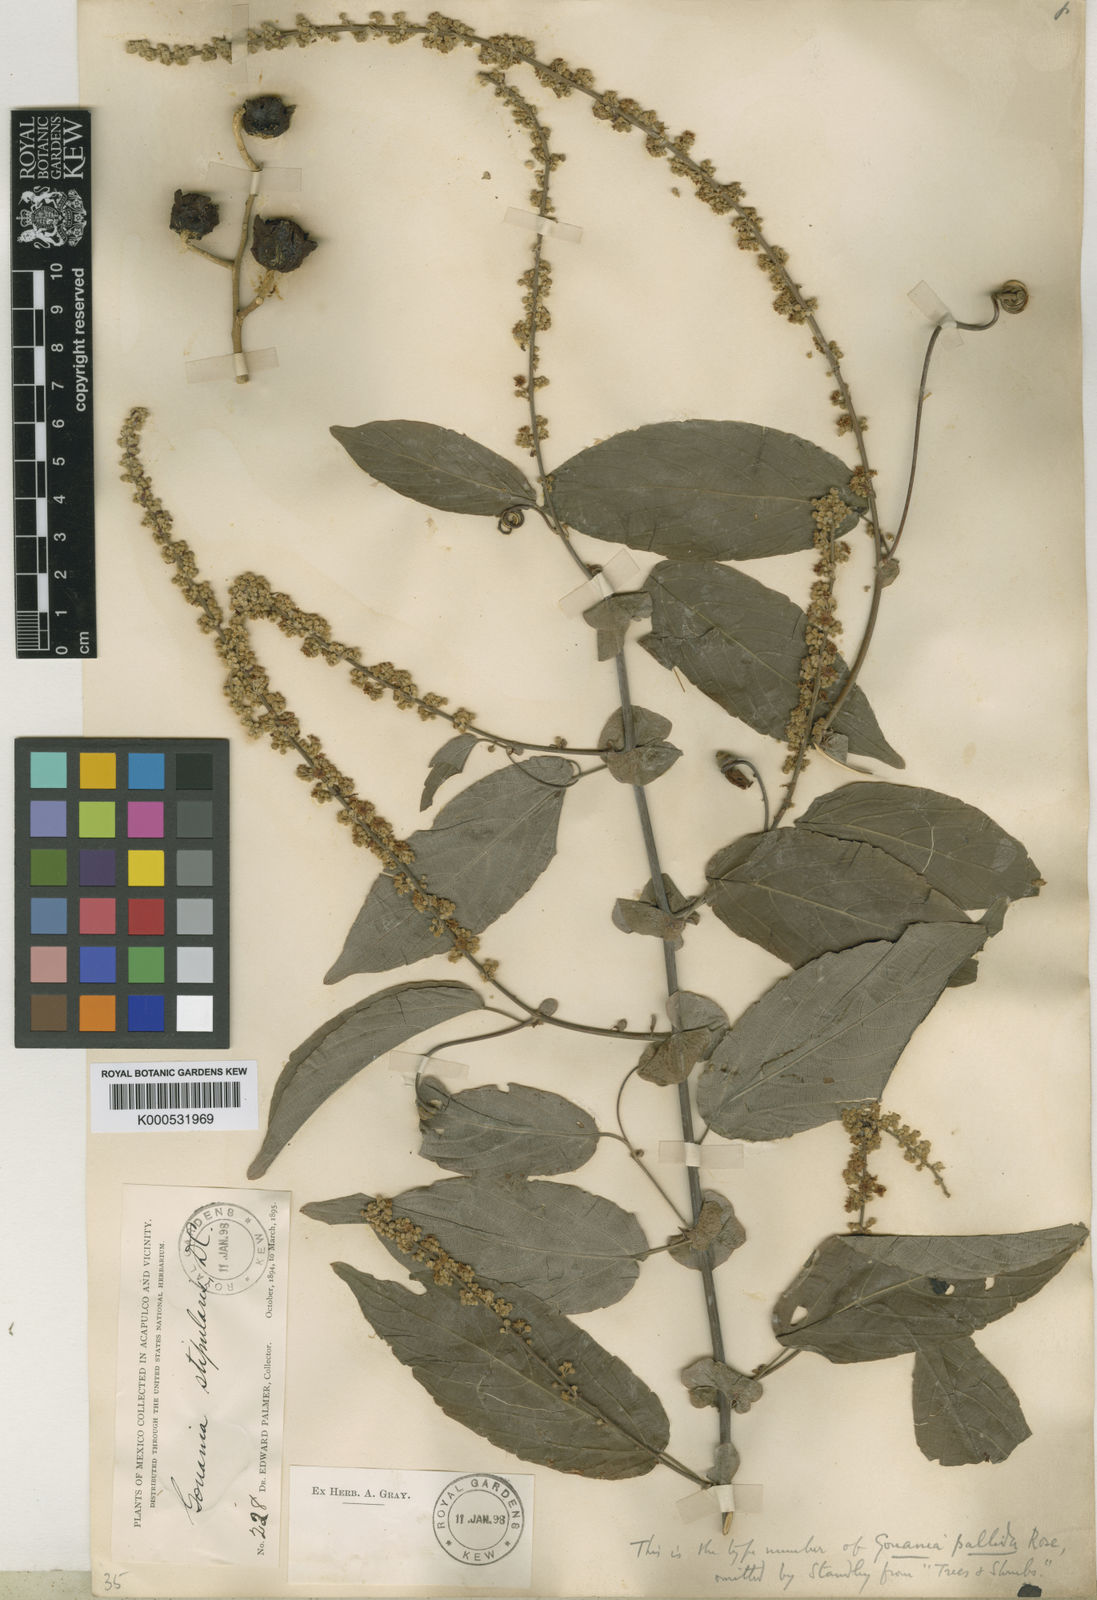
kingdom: Plantae
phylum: Tracheophyta
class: Magnoliopsida
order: Rosales
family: Rhamnaceae
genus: Gouania
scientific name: Gouania stipularis
